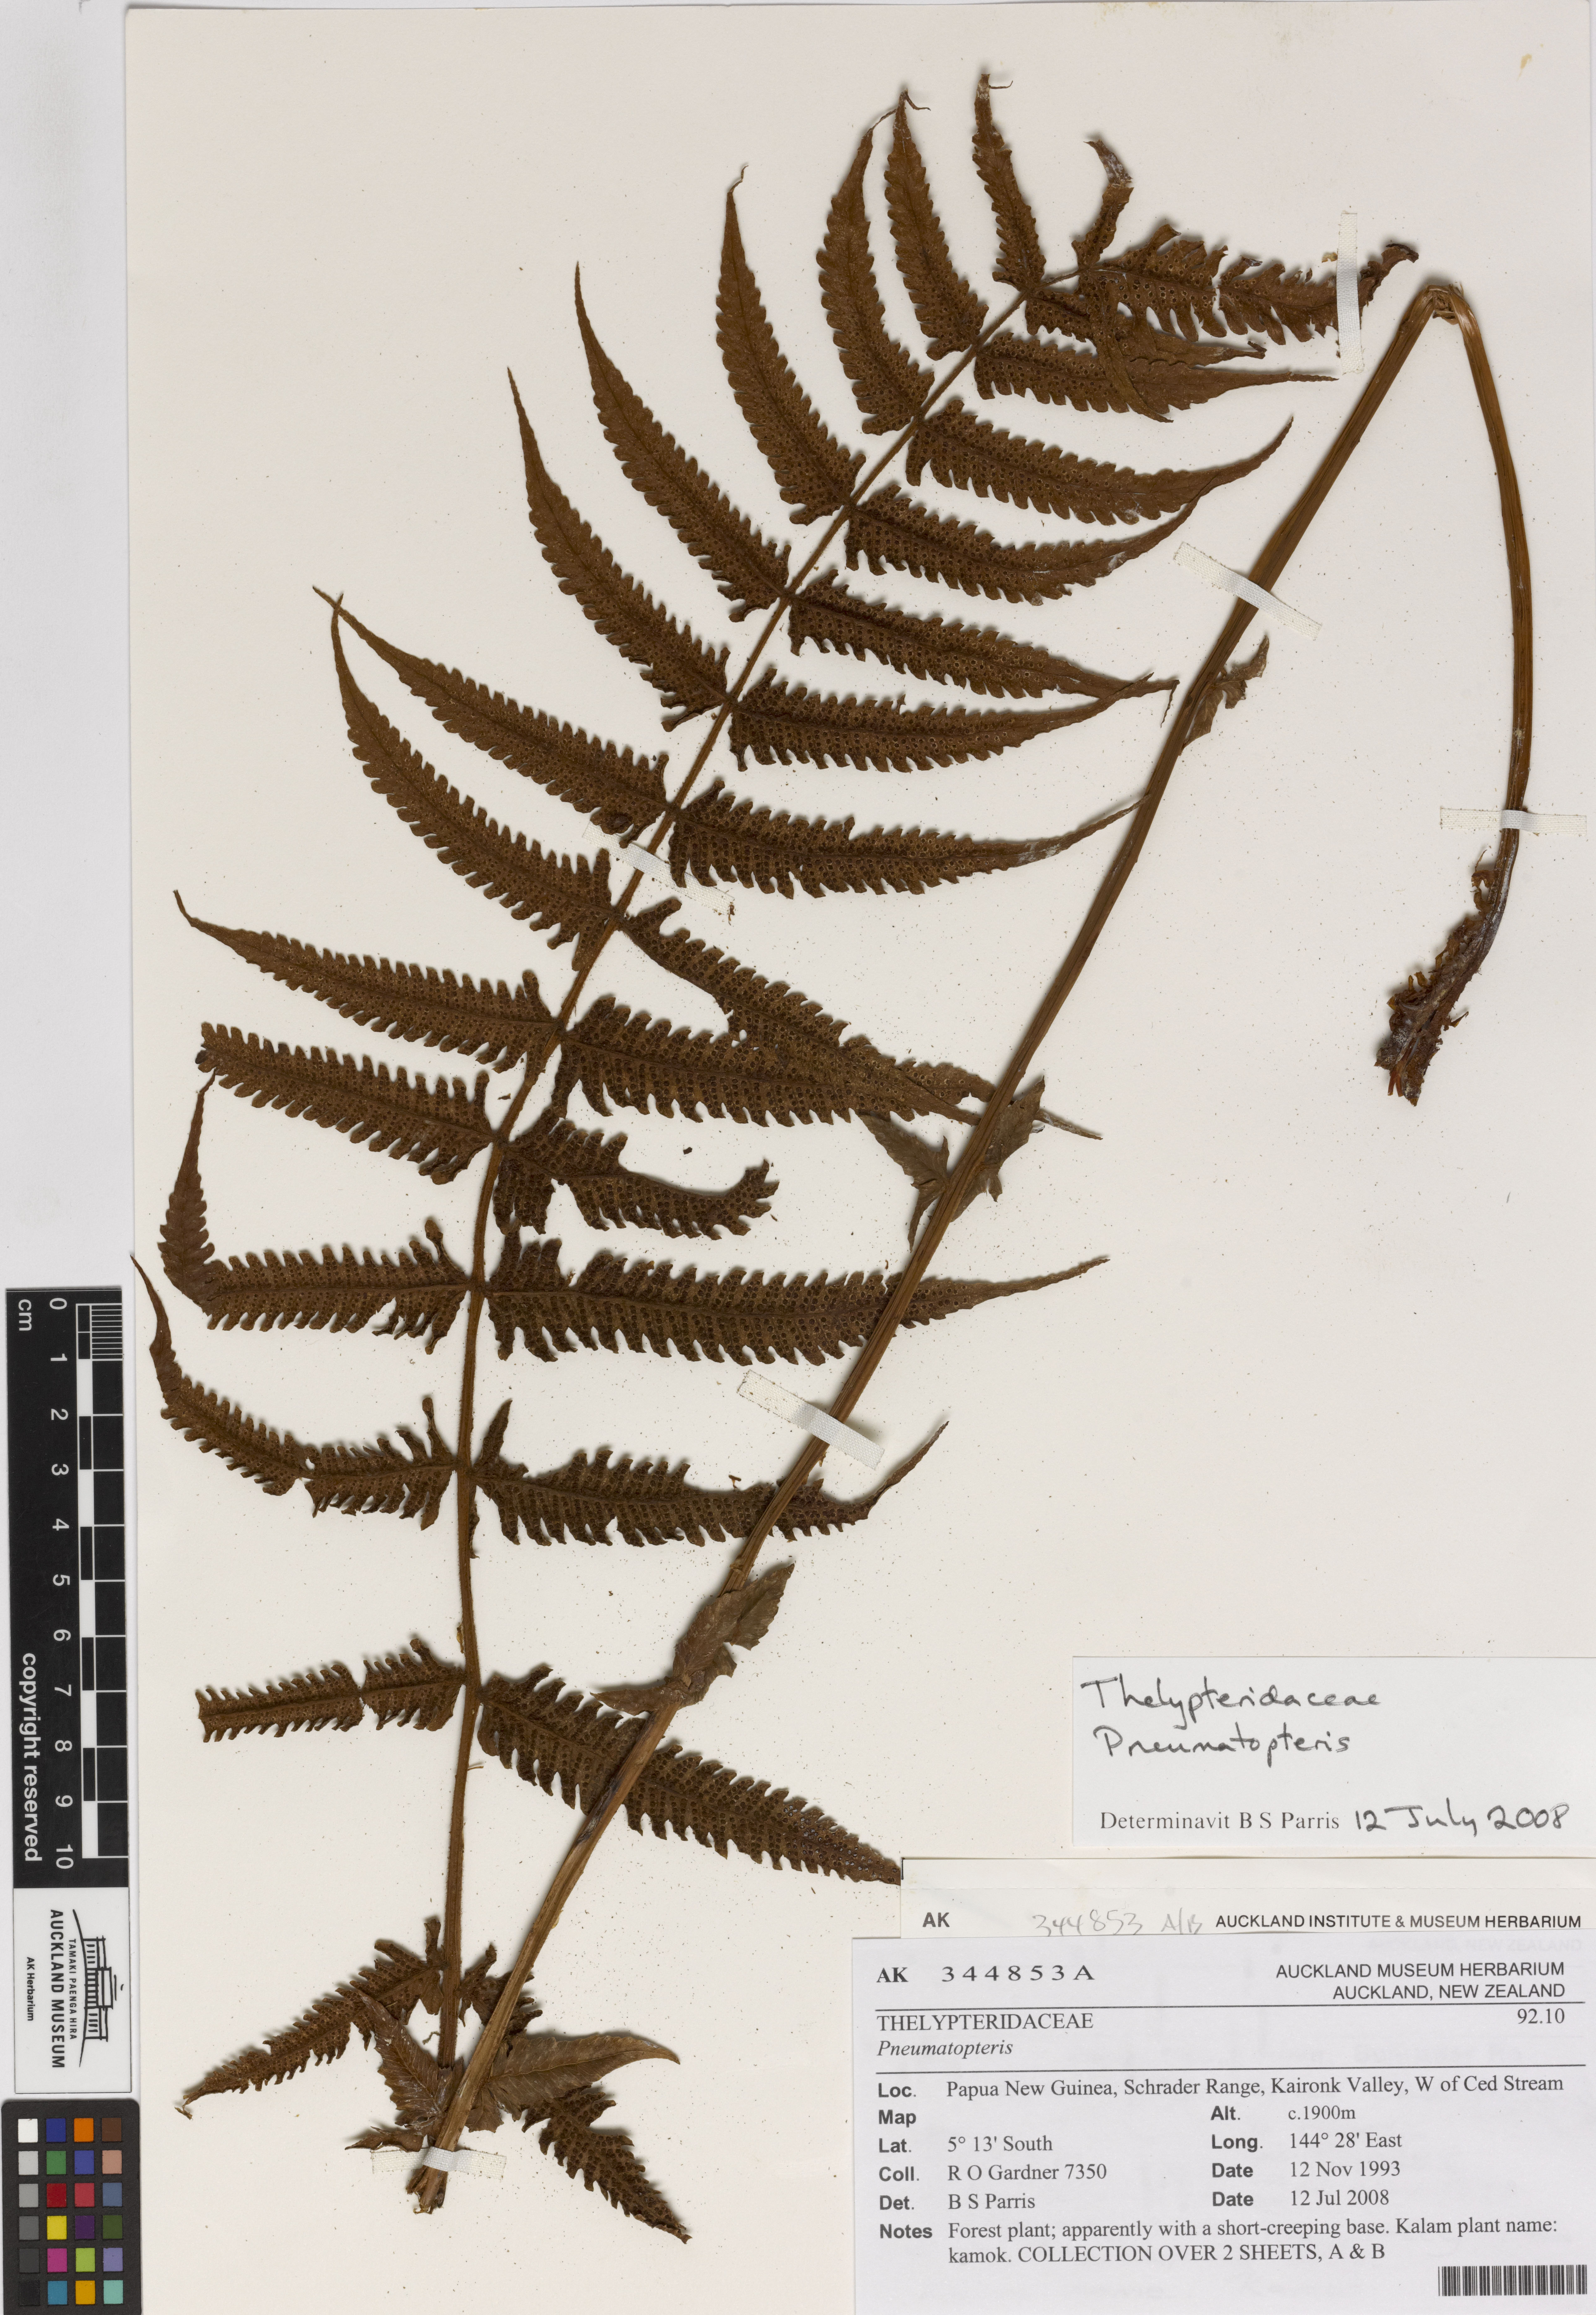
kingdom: Plantae
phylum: Tracheophyta
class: Polypodiopsida
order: Polypodiales
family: Thelypteridaceae
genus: Pneumatopteris
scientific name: Pneumatopteris
